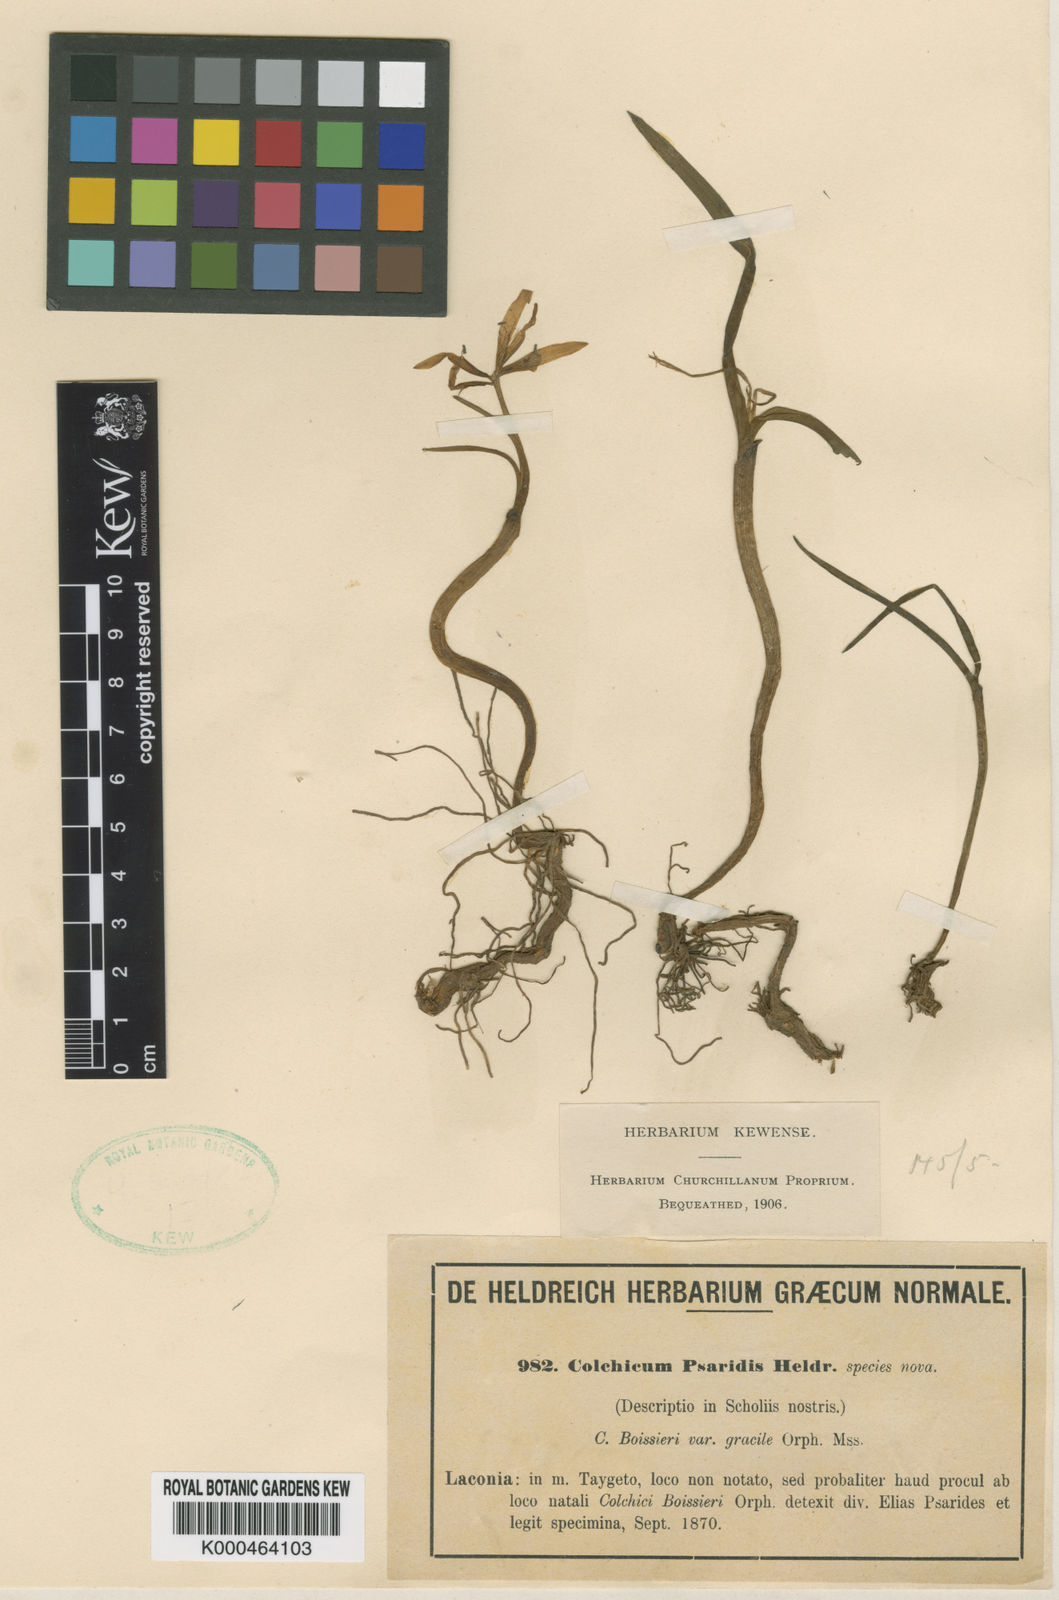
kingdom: Plantae
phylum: Tracheophyta
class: Liliopsida
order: Liliales
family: Colchicaceae
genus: Colchicum
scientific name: Colchicum zahnii
